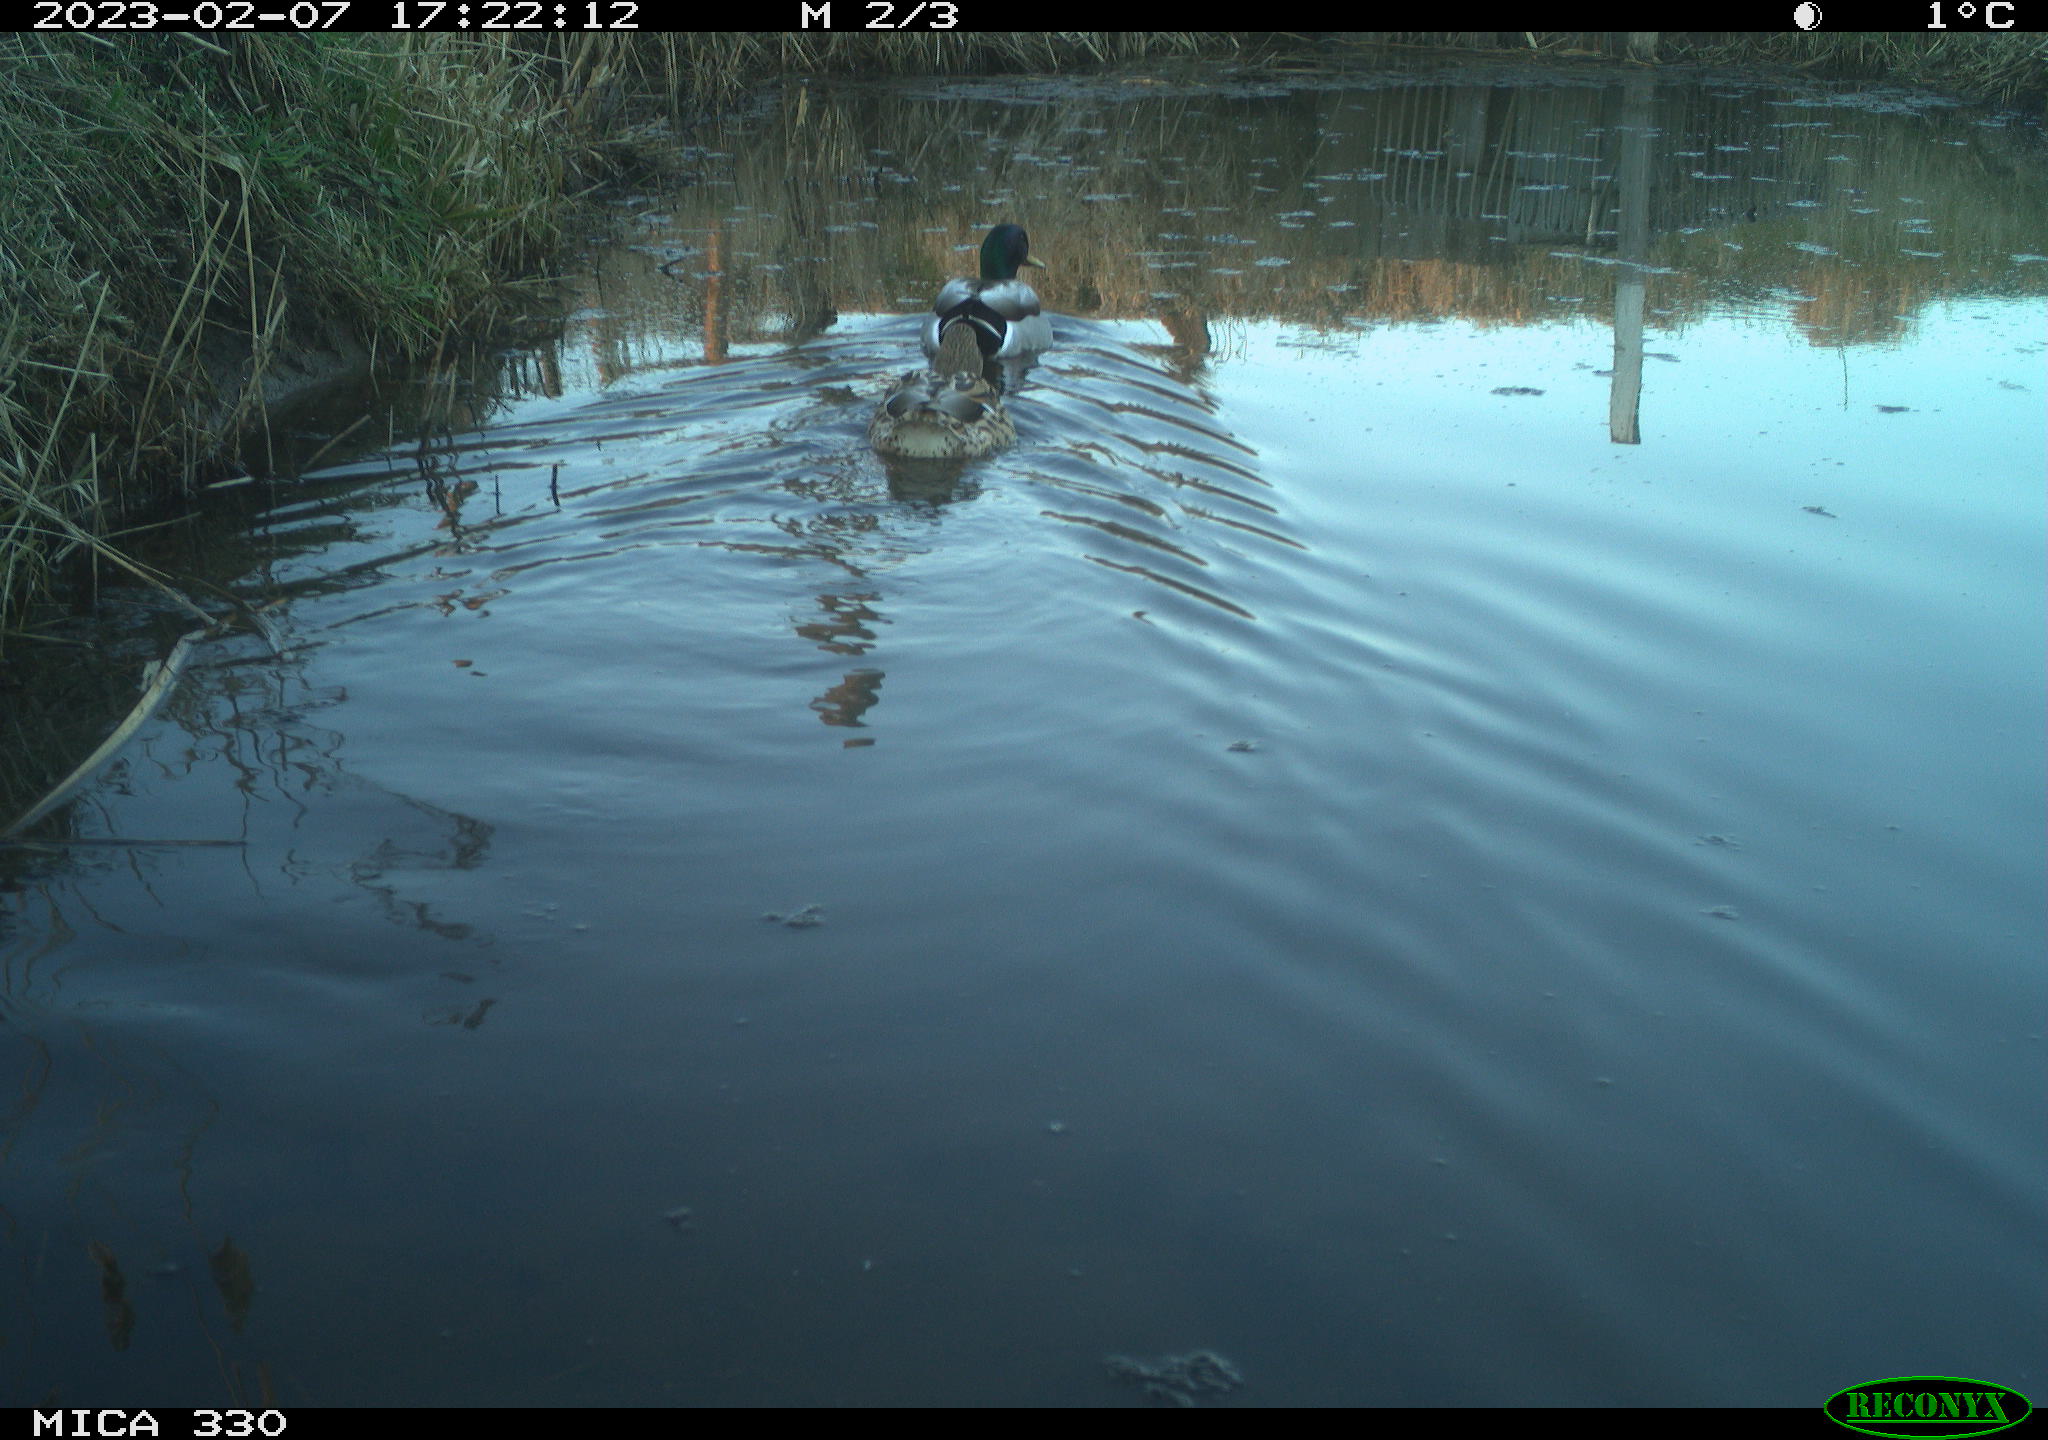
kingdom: Animalia
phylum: Chordata
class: Aves
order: Anseriformes
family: Anatidae
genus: Anas
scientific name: Anas
